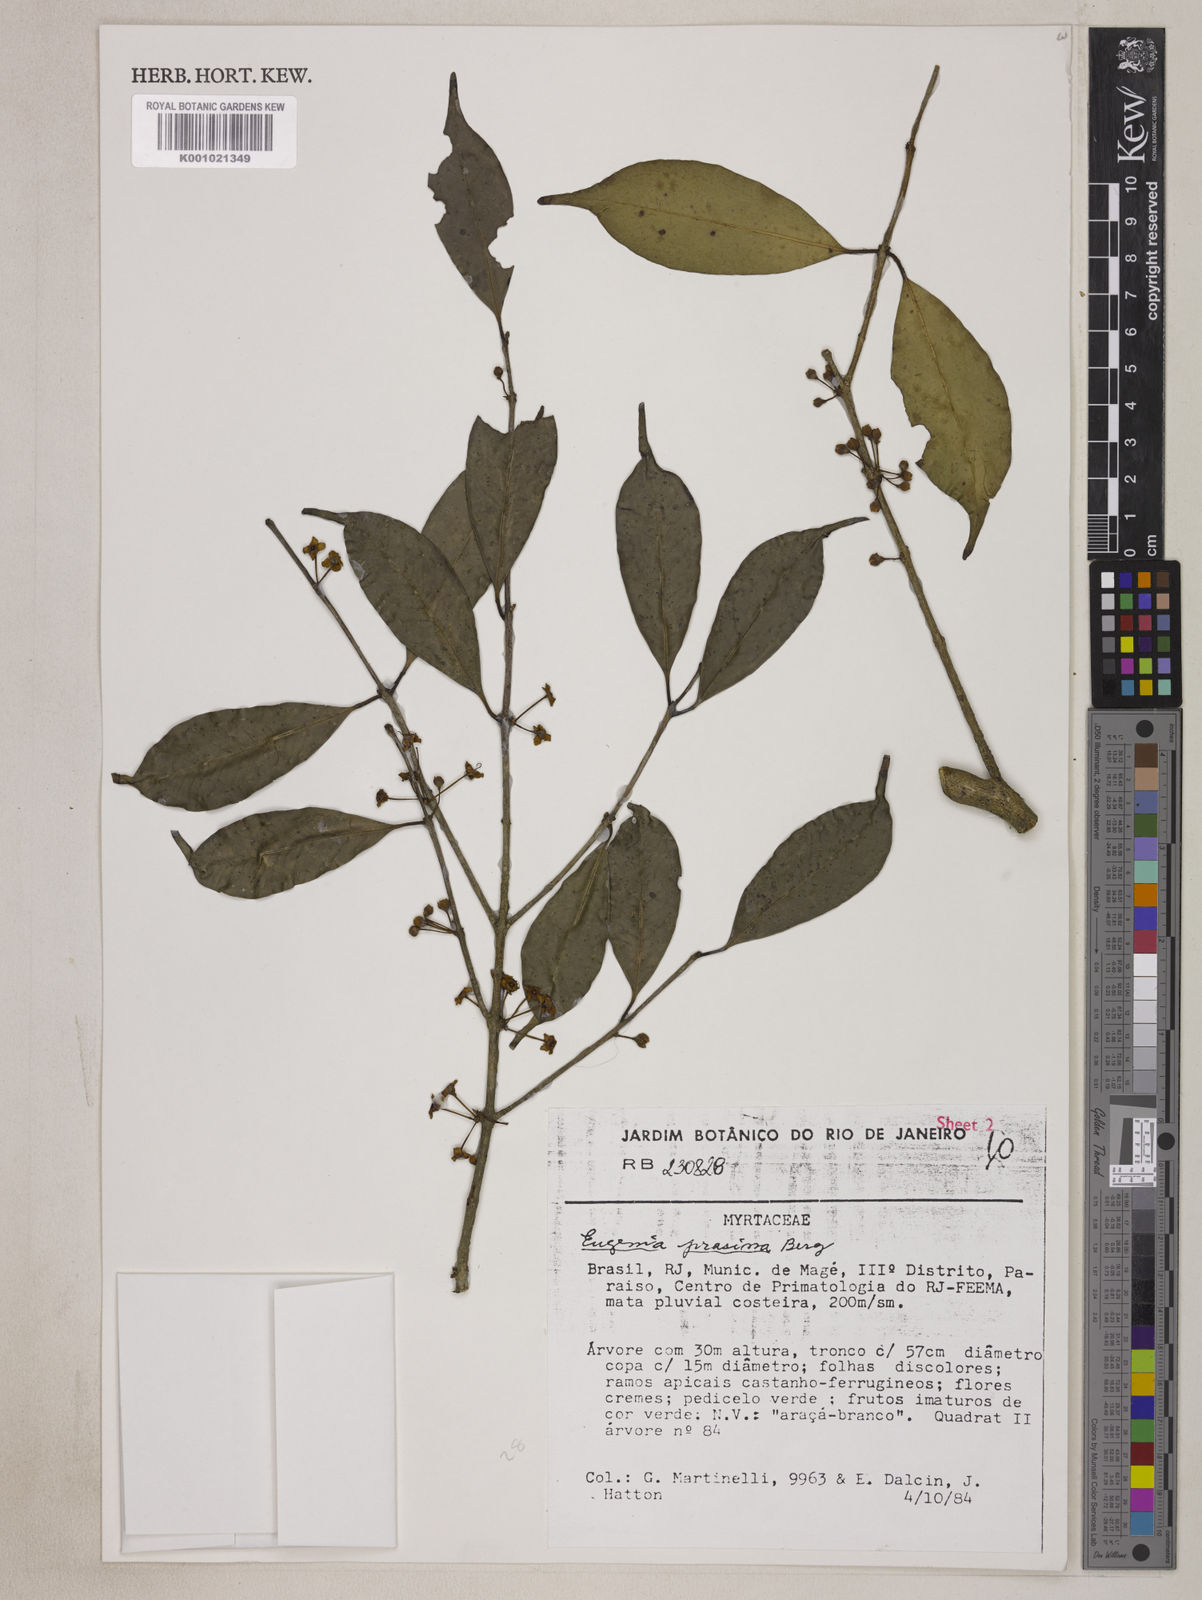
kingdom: Plantae
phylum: Tracheophyta
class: Magnoliopsida
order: Myrtales
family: Myrtaceae
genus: Eugenia
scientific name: Eugenia prasina
